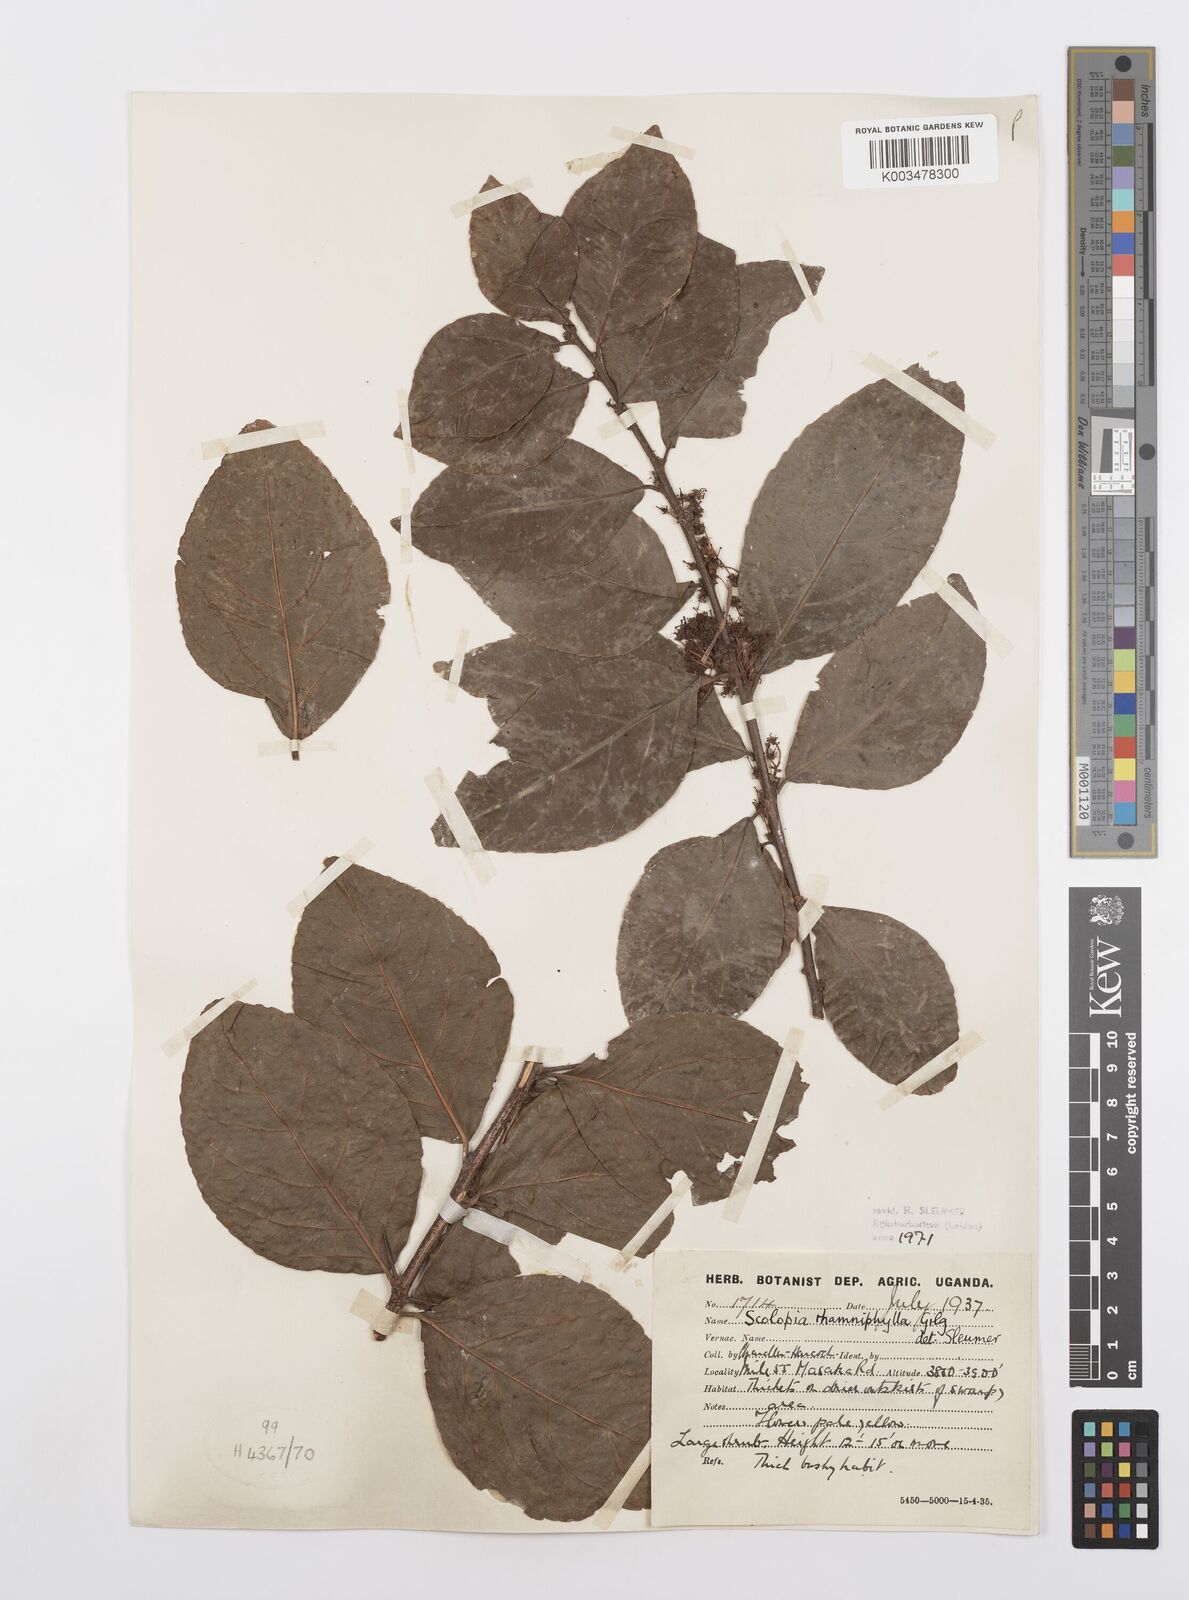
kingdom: Plantae
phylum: Tracheophyta
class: Magnoliopsida
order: Malpighiales
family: Salicaceae
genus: Scolopia
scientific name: Scolopia rhamniphylla
